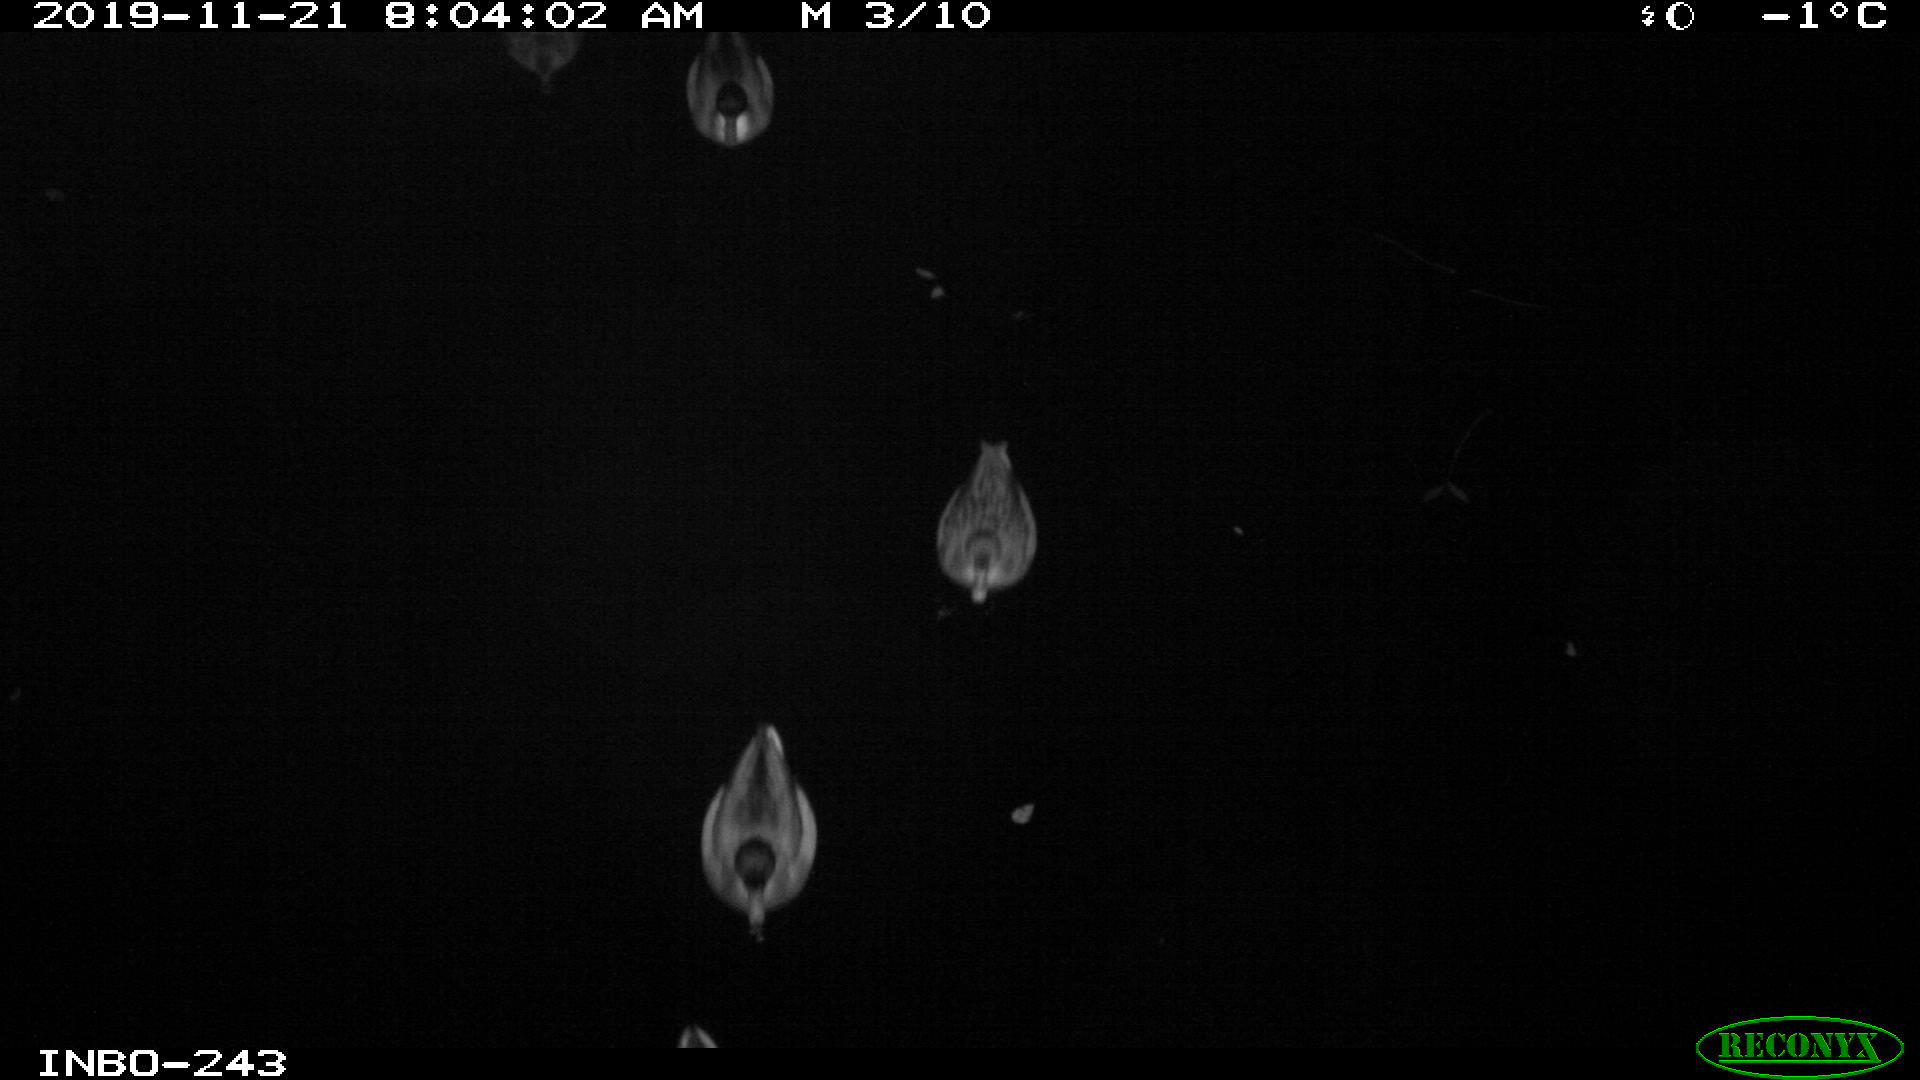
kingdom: Animalia
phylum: Chordata
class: Aves
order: Anseriformes
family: Anatidae
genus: Anas
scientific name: Anas platyrhynchos
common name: Mallard
